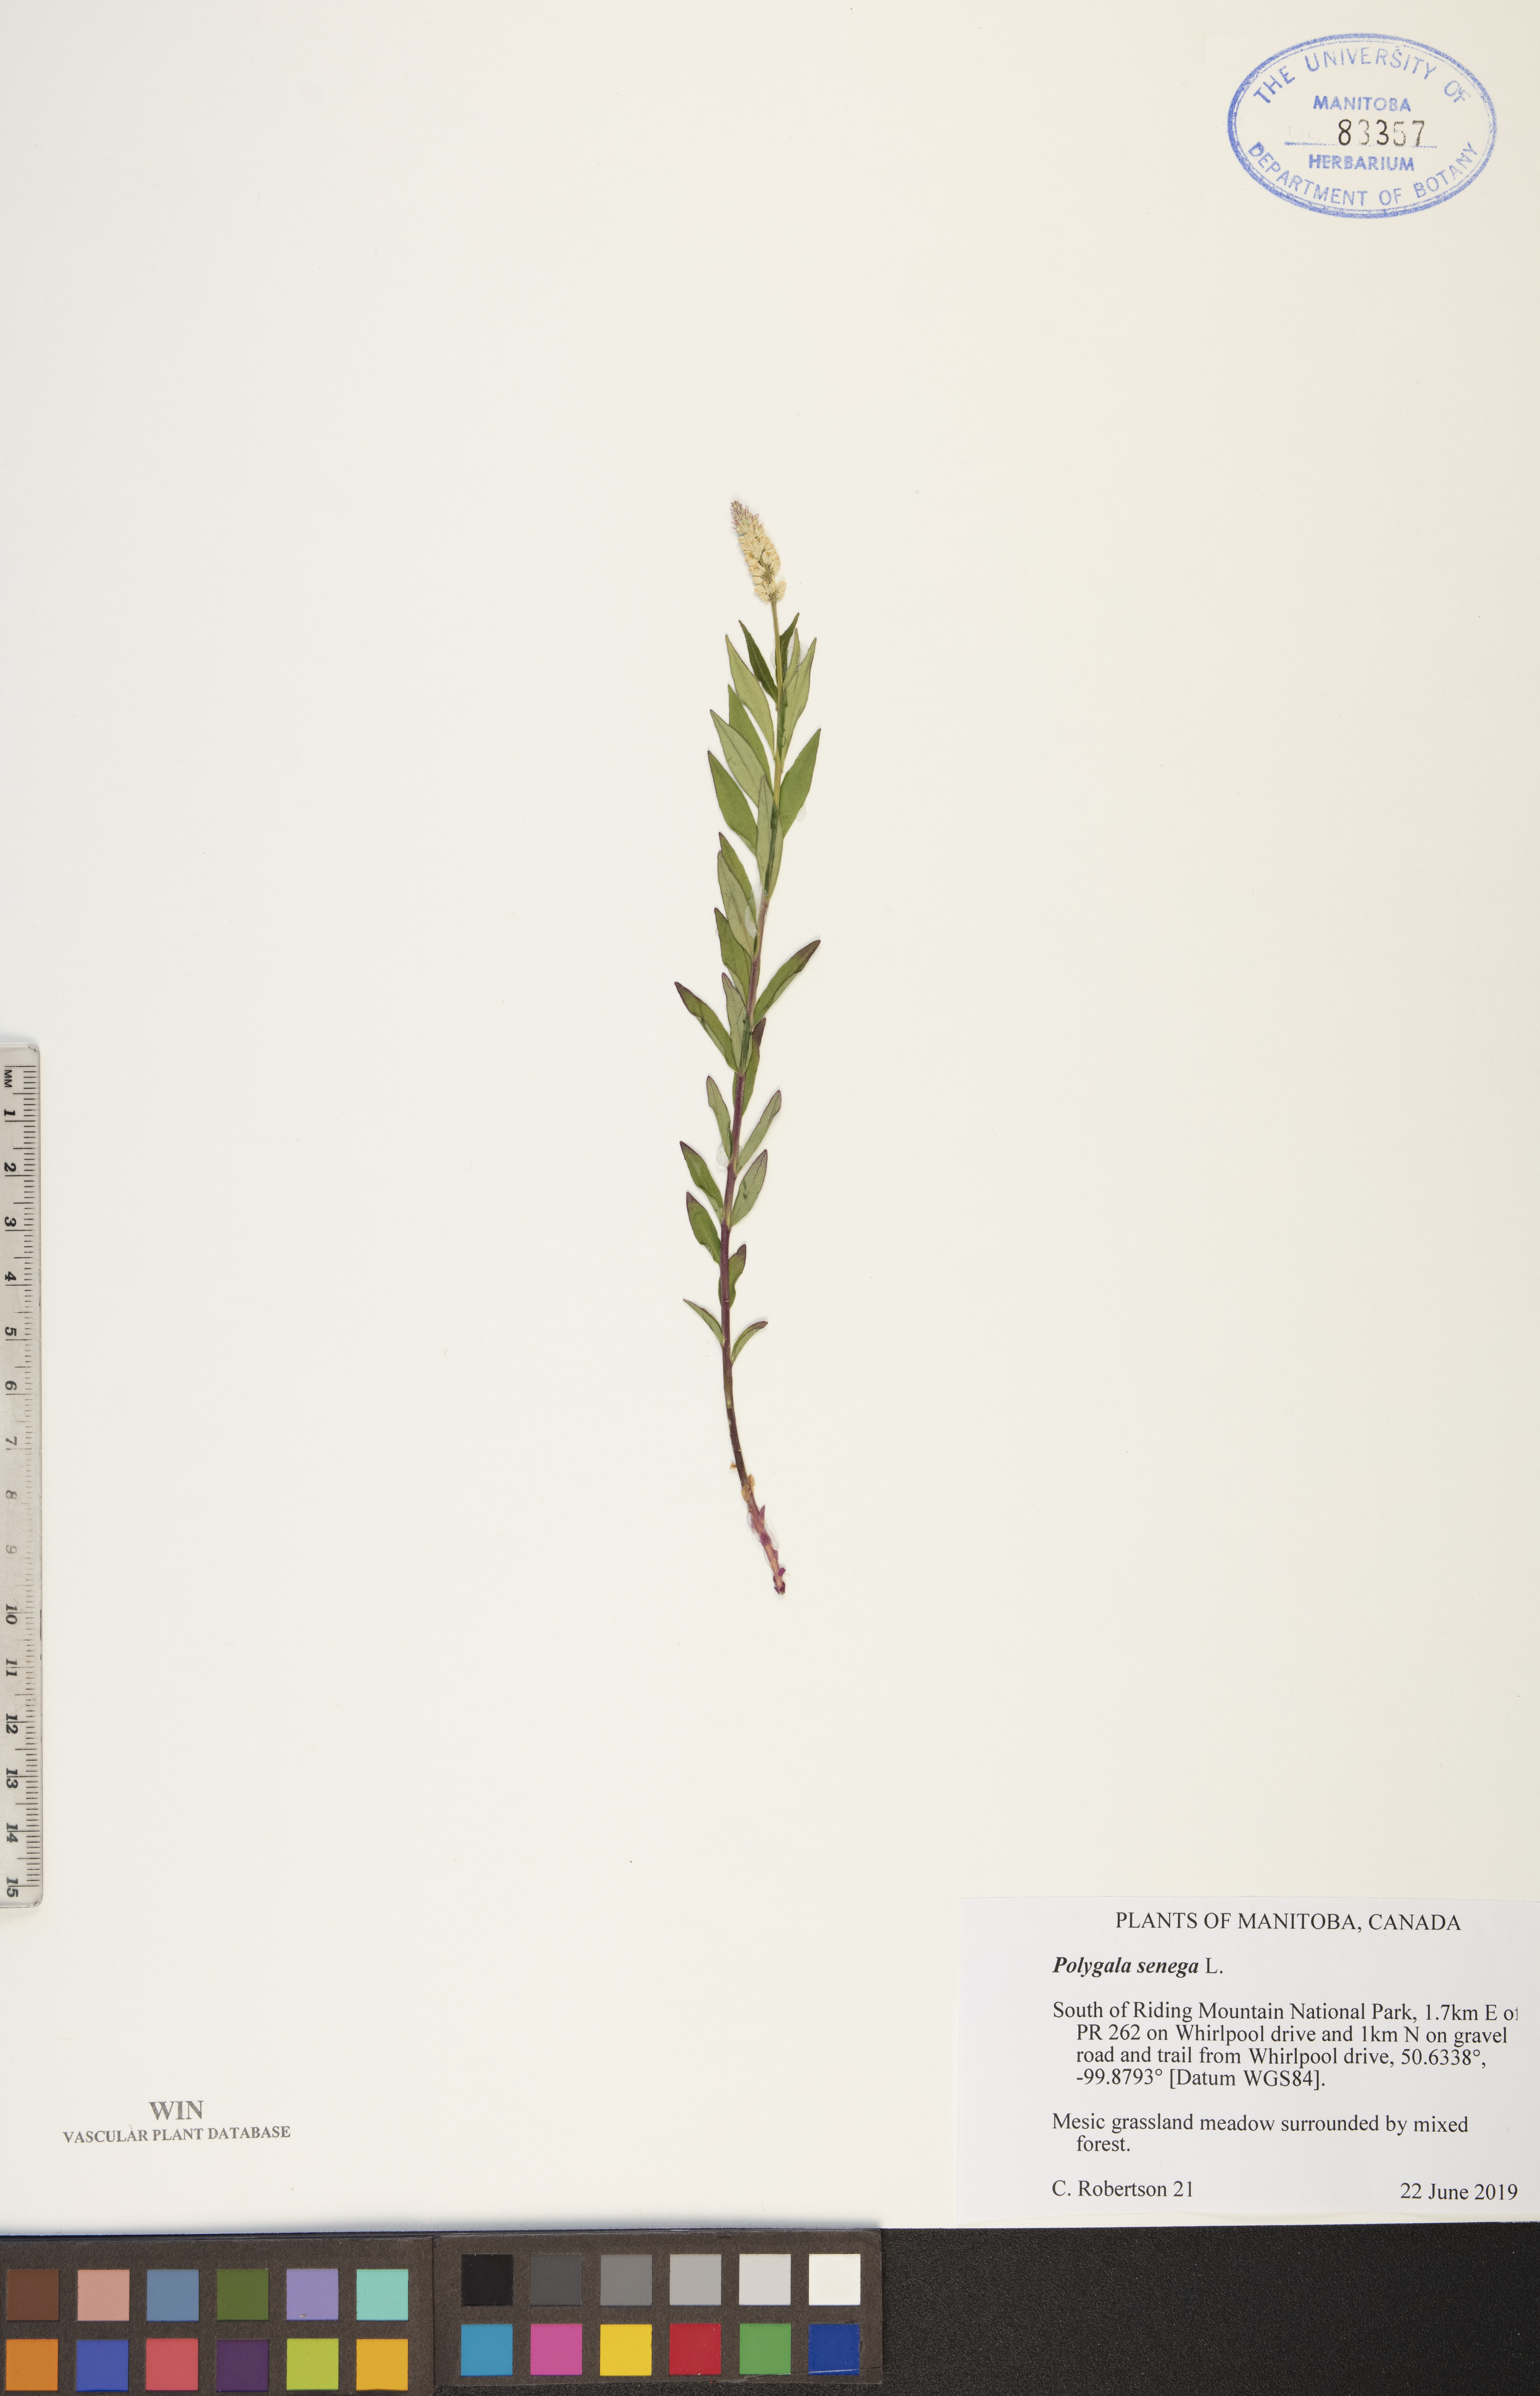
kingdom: Plantae
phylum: Tracheophyta
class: Magnoliopsida
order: Fabales
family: Polygalaceae
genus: Polygala
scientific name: Polygala senega
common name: Seneca snakeroot
